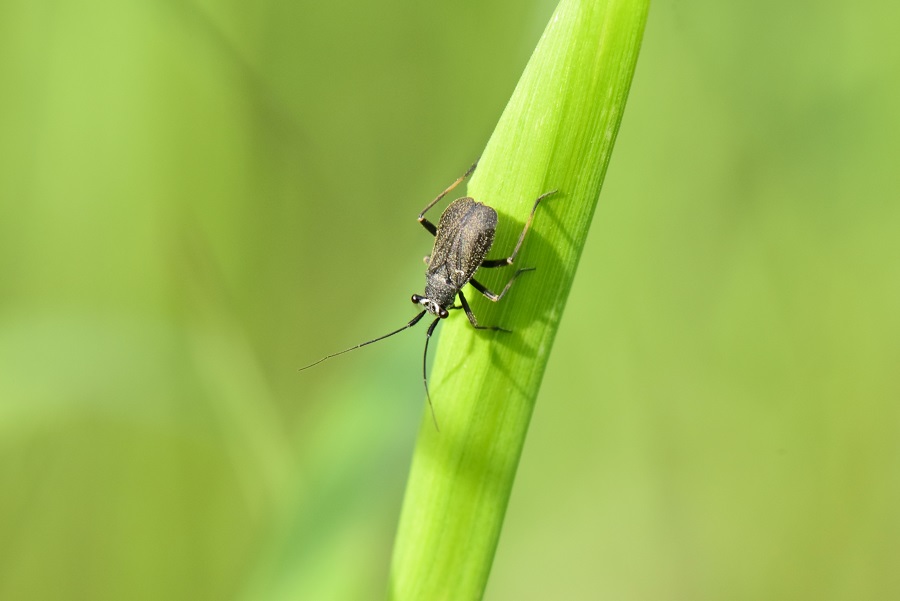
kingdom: Animalia
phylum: Arthropoda
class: Insecta
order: Hemiptera
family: Miridae
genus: Labops
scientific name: Labops sahlbergii
